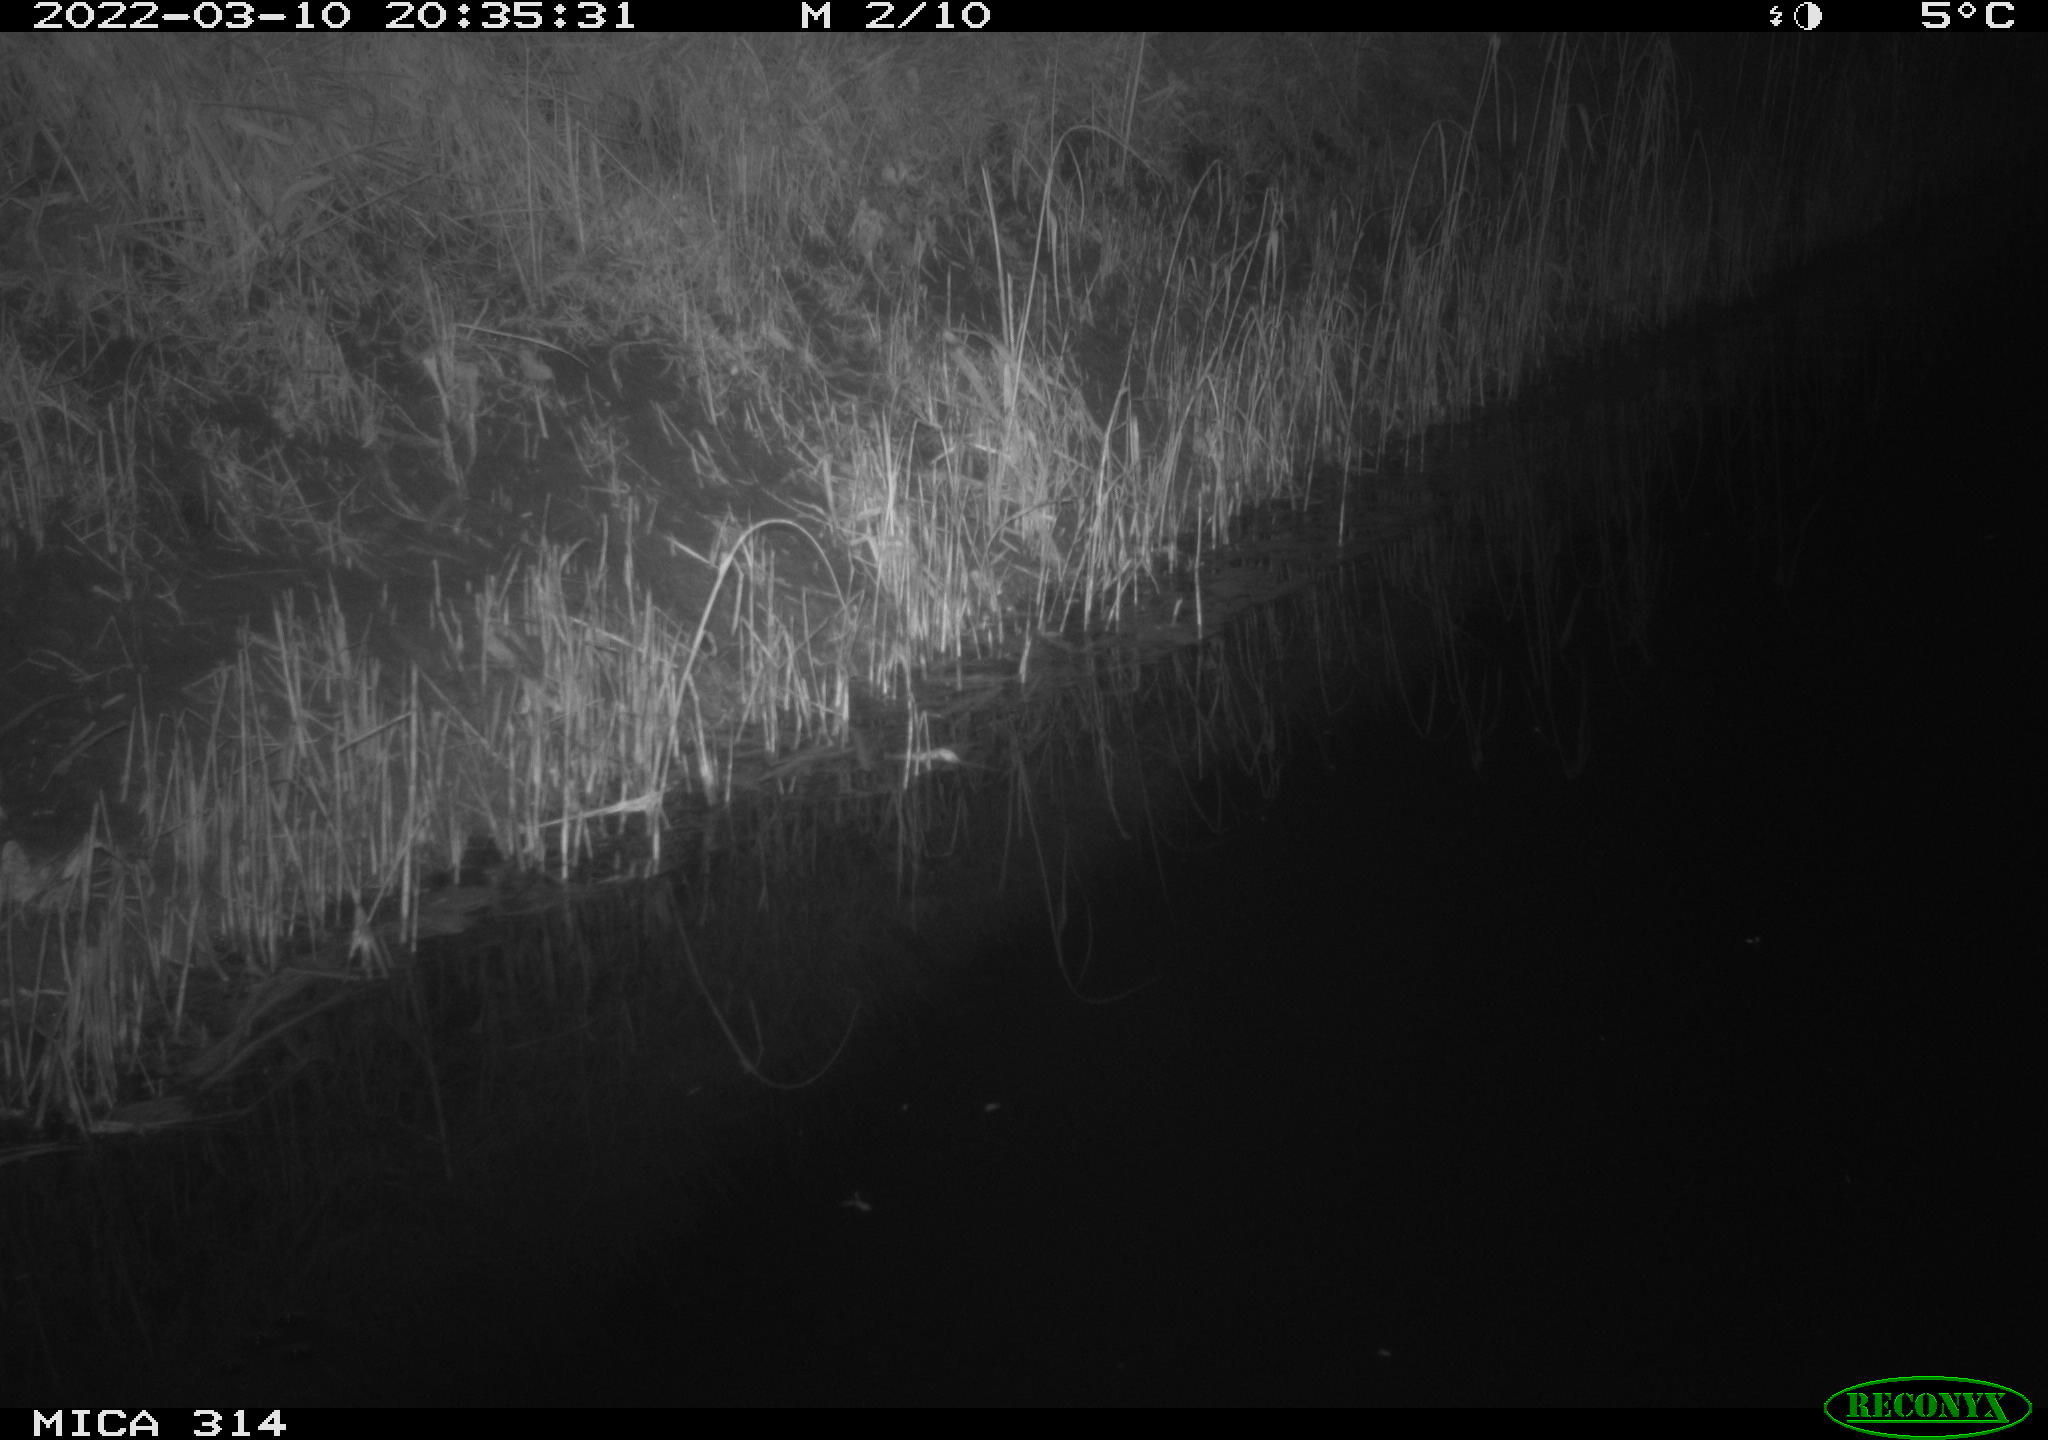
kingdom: Animalia
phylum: Chordata
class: Mammalia
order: Rodentia
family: Muridae
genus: Rattus
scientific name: Rattus norvegicus
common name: Brown rat
